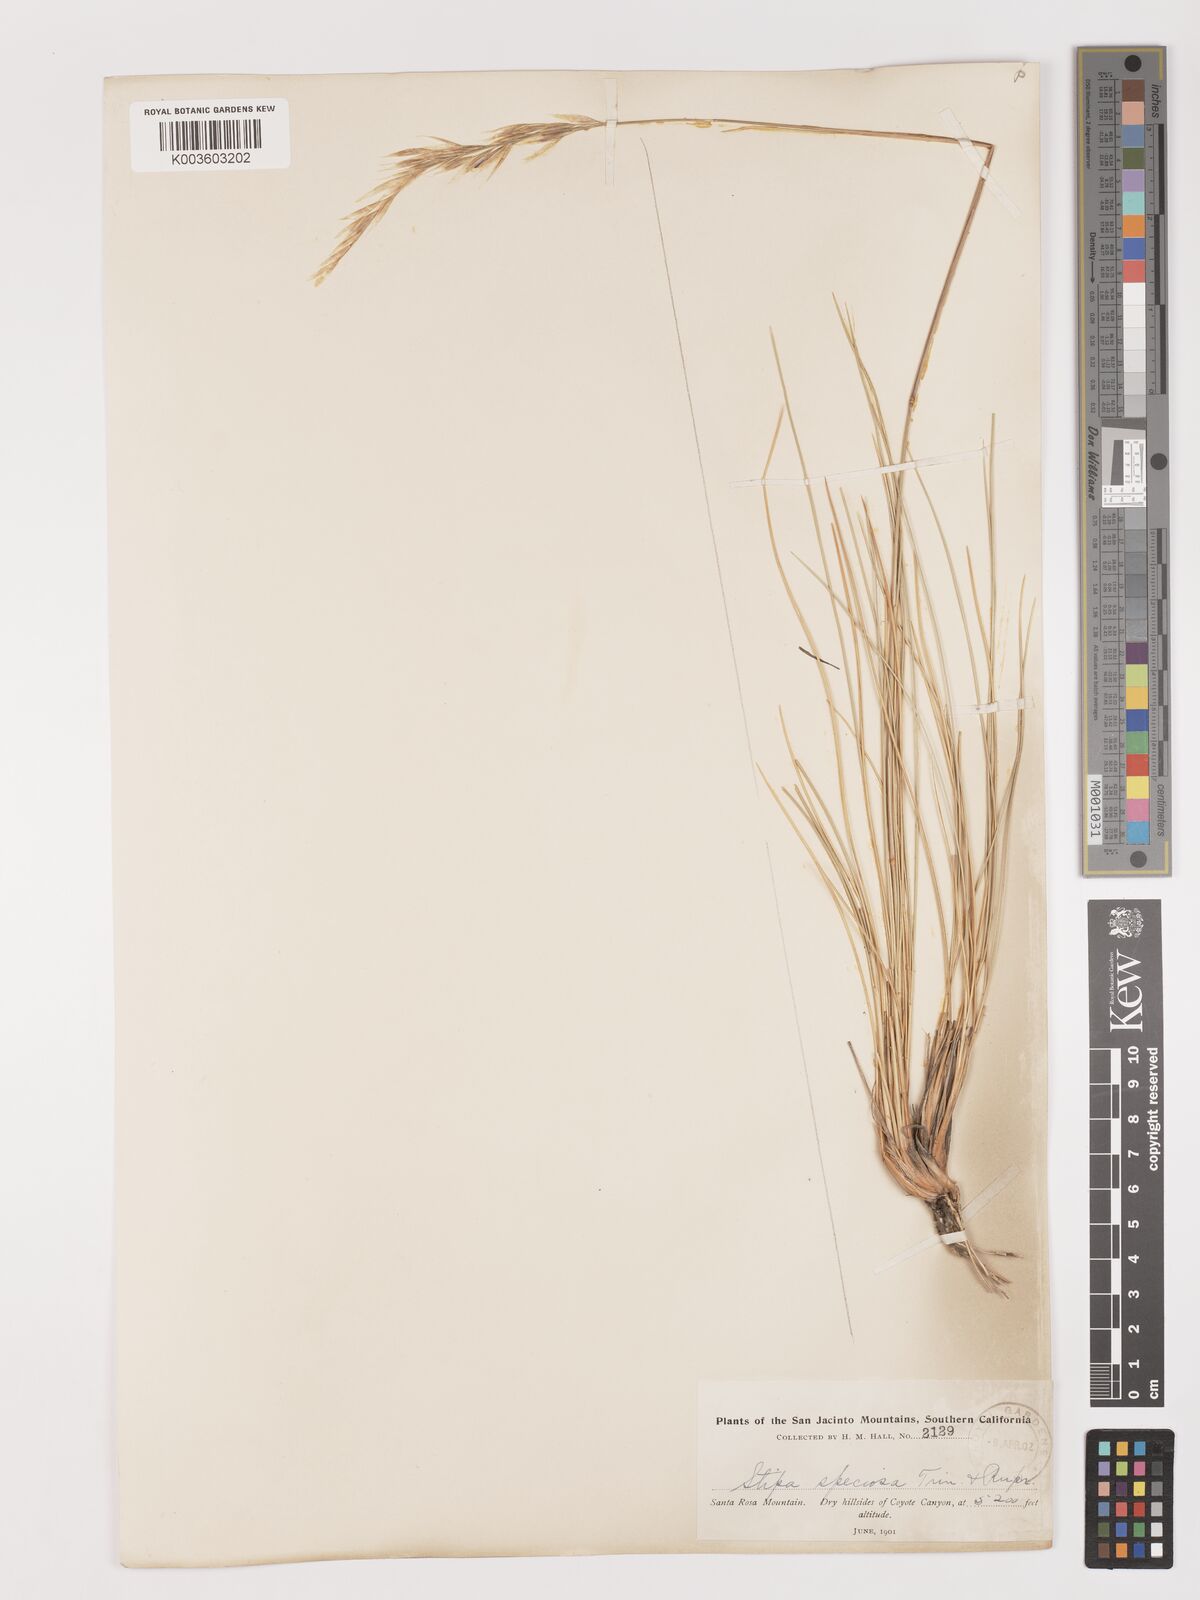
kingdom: Plantae
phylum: Tracheophyta
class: Liliopsida
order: Poales
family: Poaceae
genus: Pappostipa
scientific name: Pappostipa speciosa
